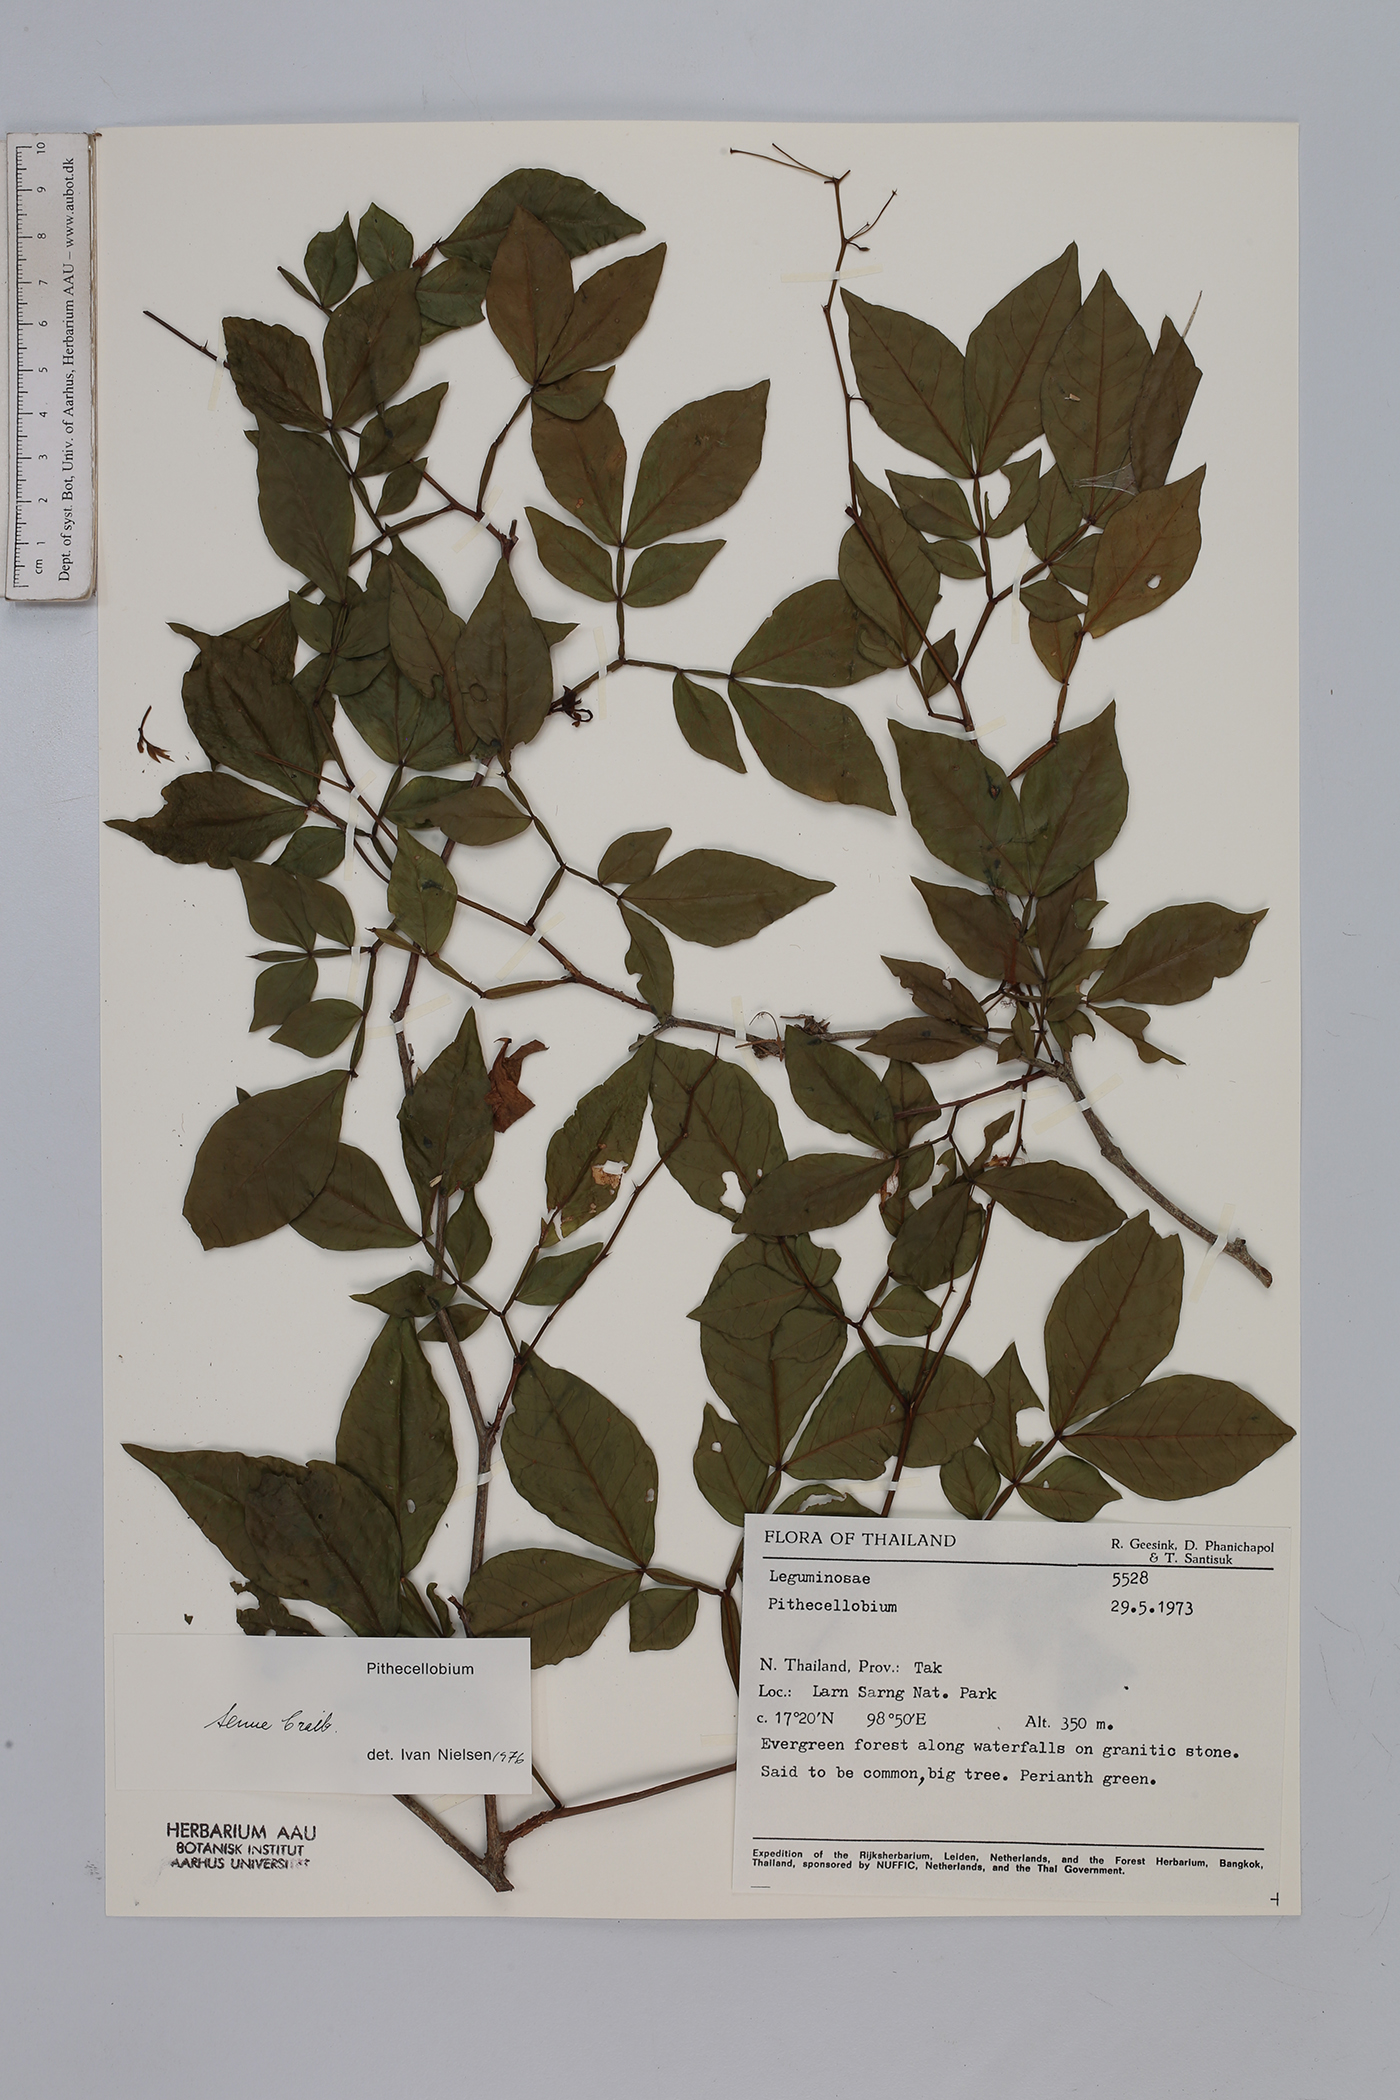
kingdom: Plantae
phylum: Tracheophyta
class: Magnoliopsida
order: Fabales
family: Fabaceae
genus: Thailentadopsis
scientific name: Thailentadopsis tenuis
